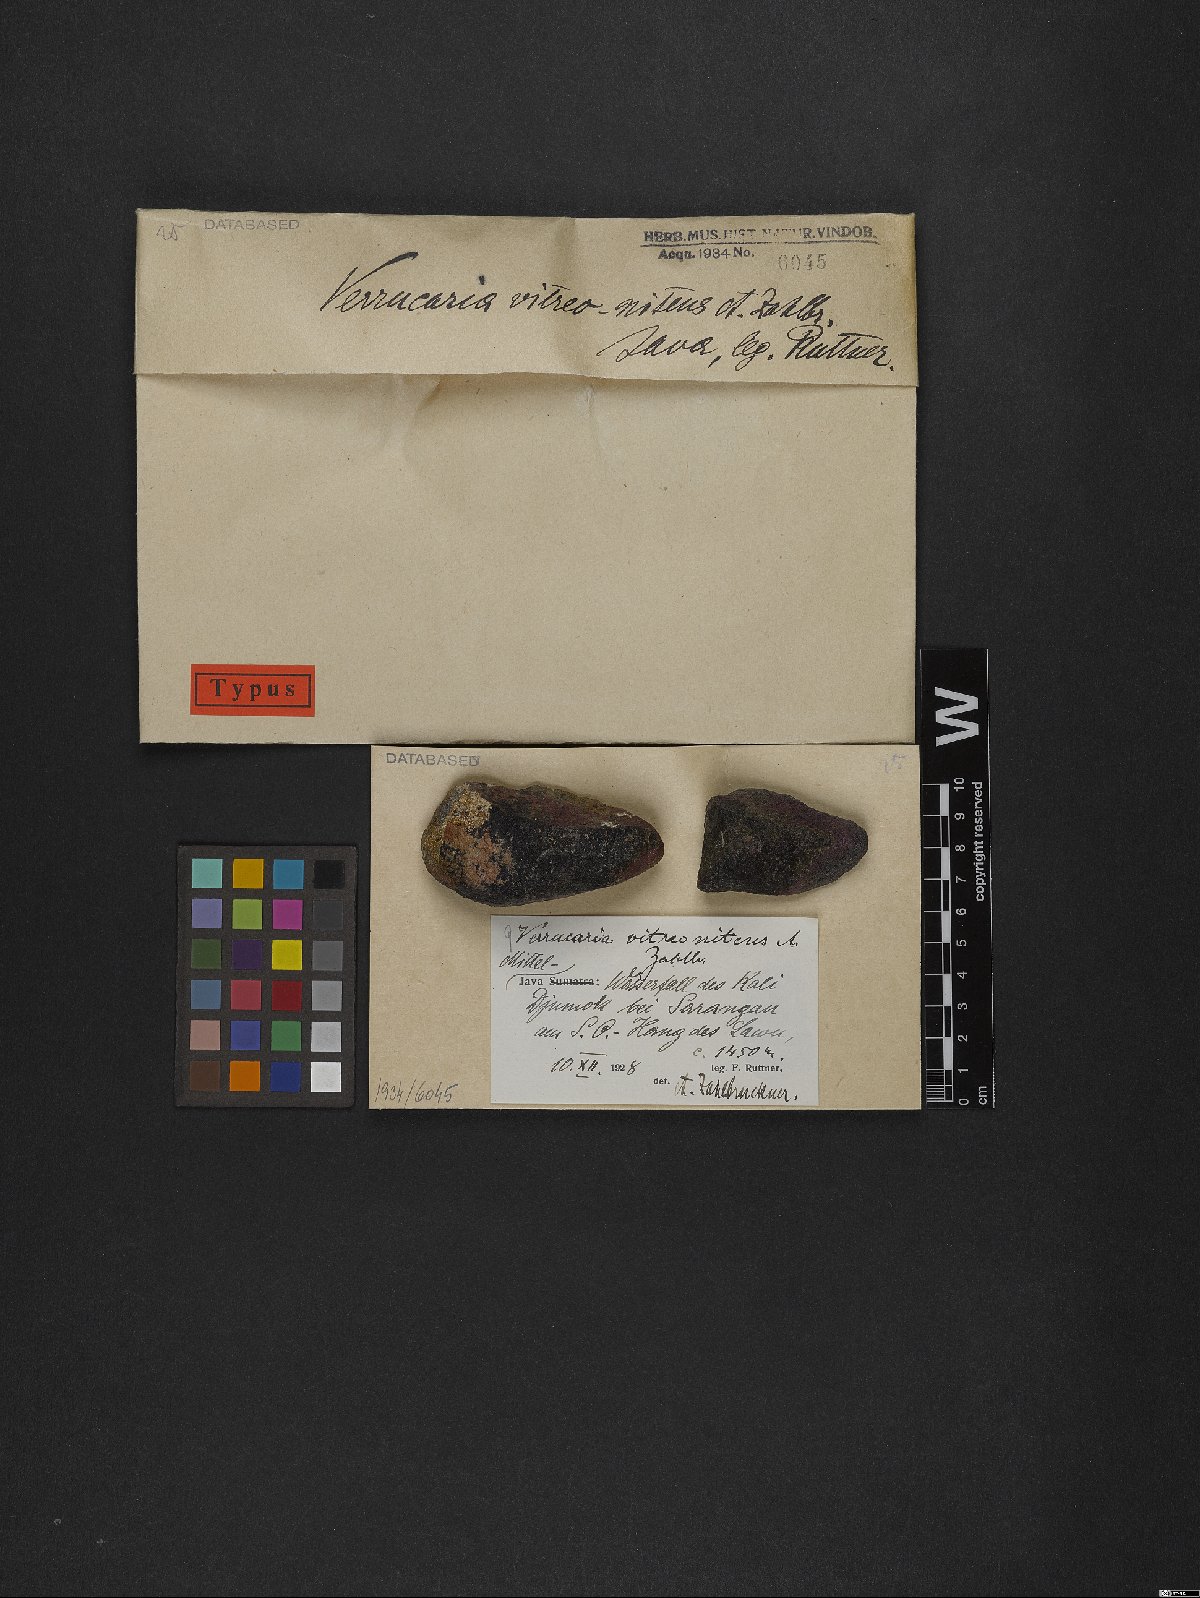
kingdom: Fungi
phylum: Ascomycota
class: Eurotiomycetes
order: Verrucariales
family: Verrucariaceae
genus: Verrucaria
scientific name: Verrucaria
